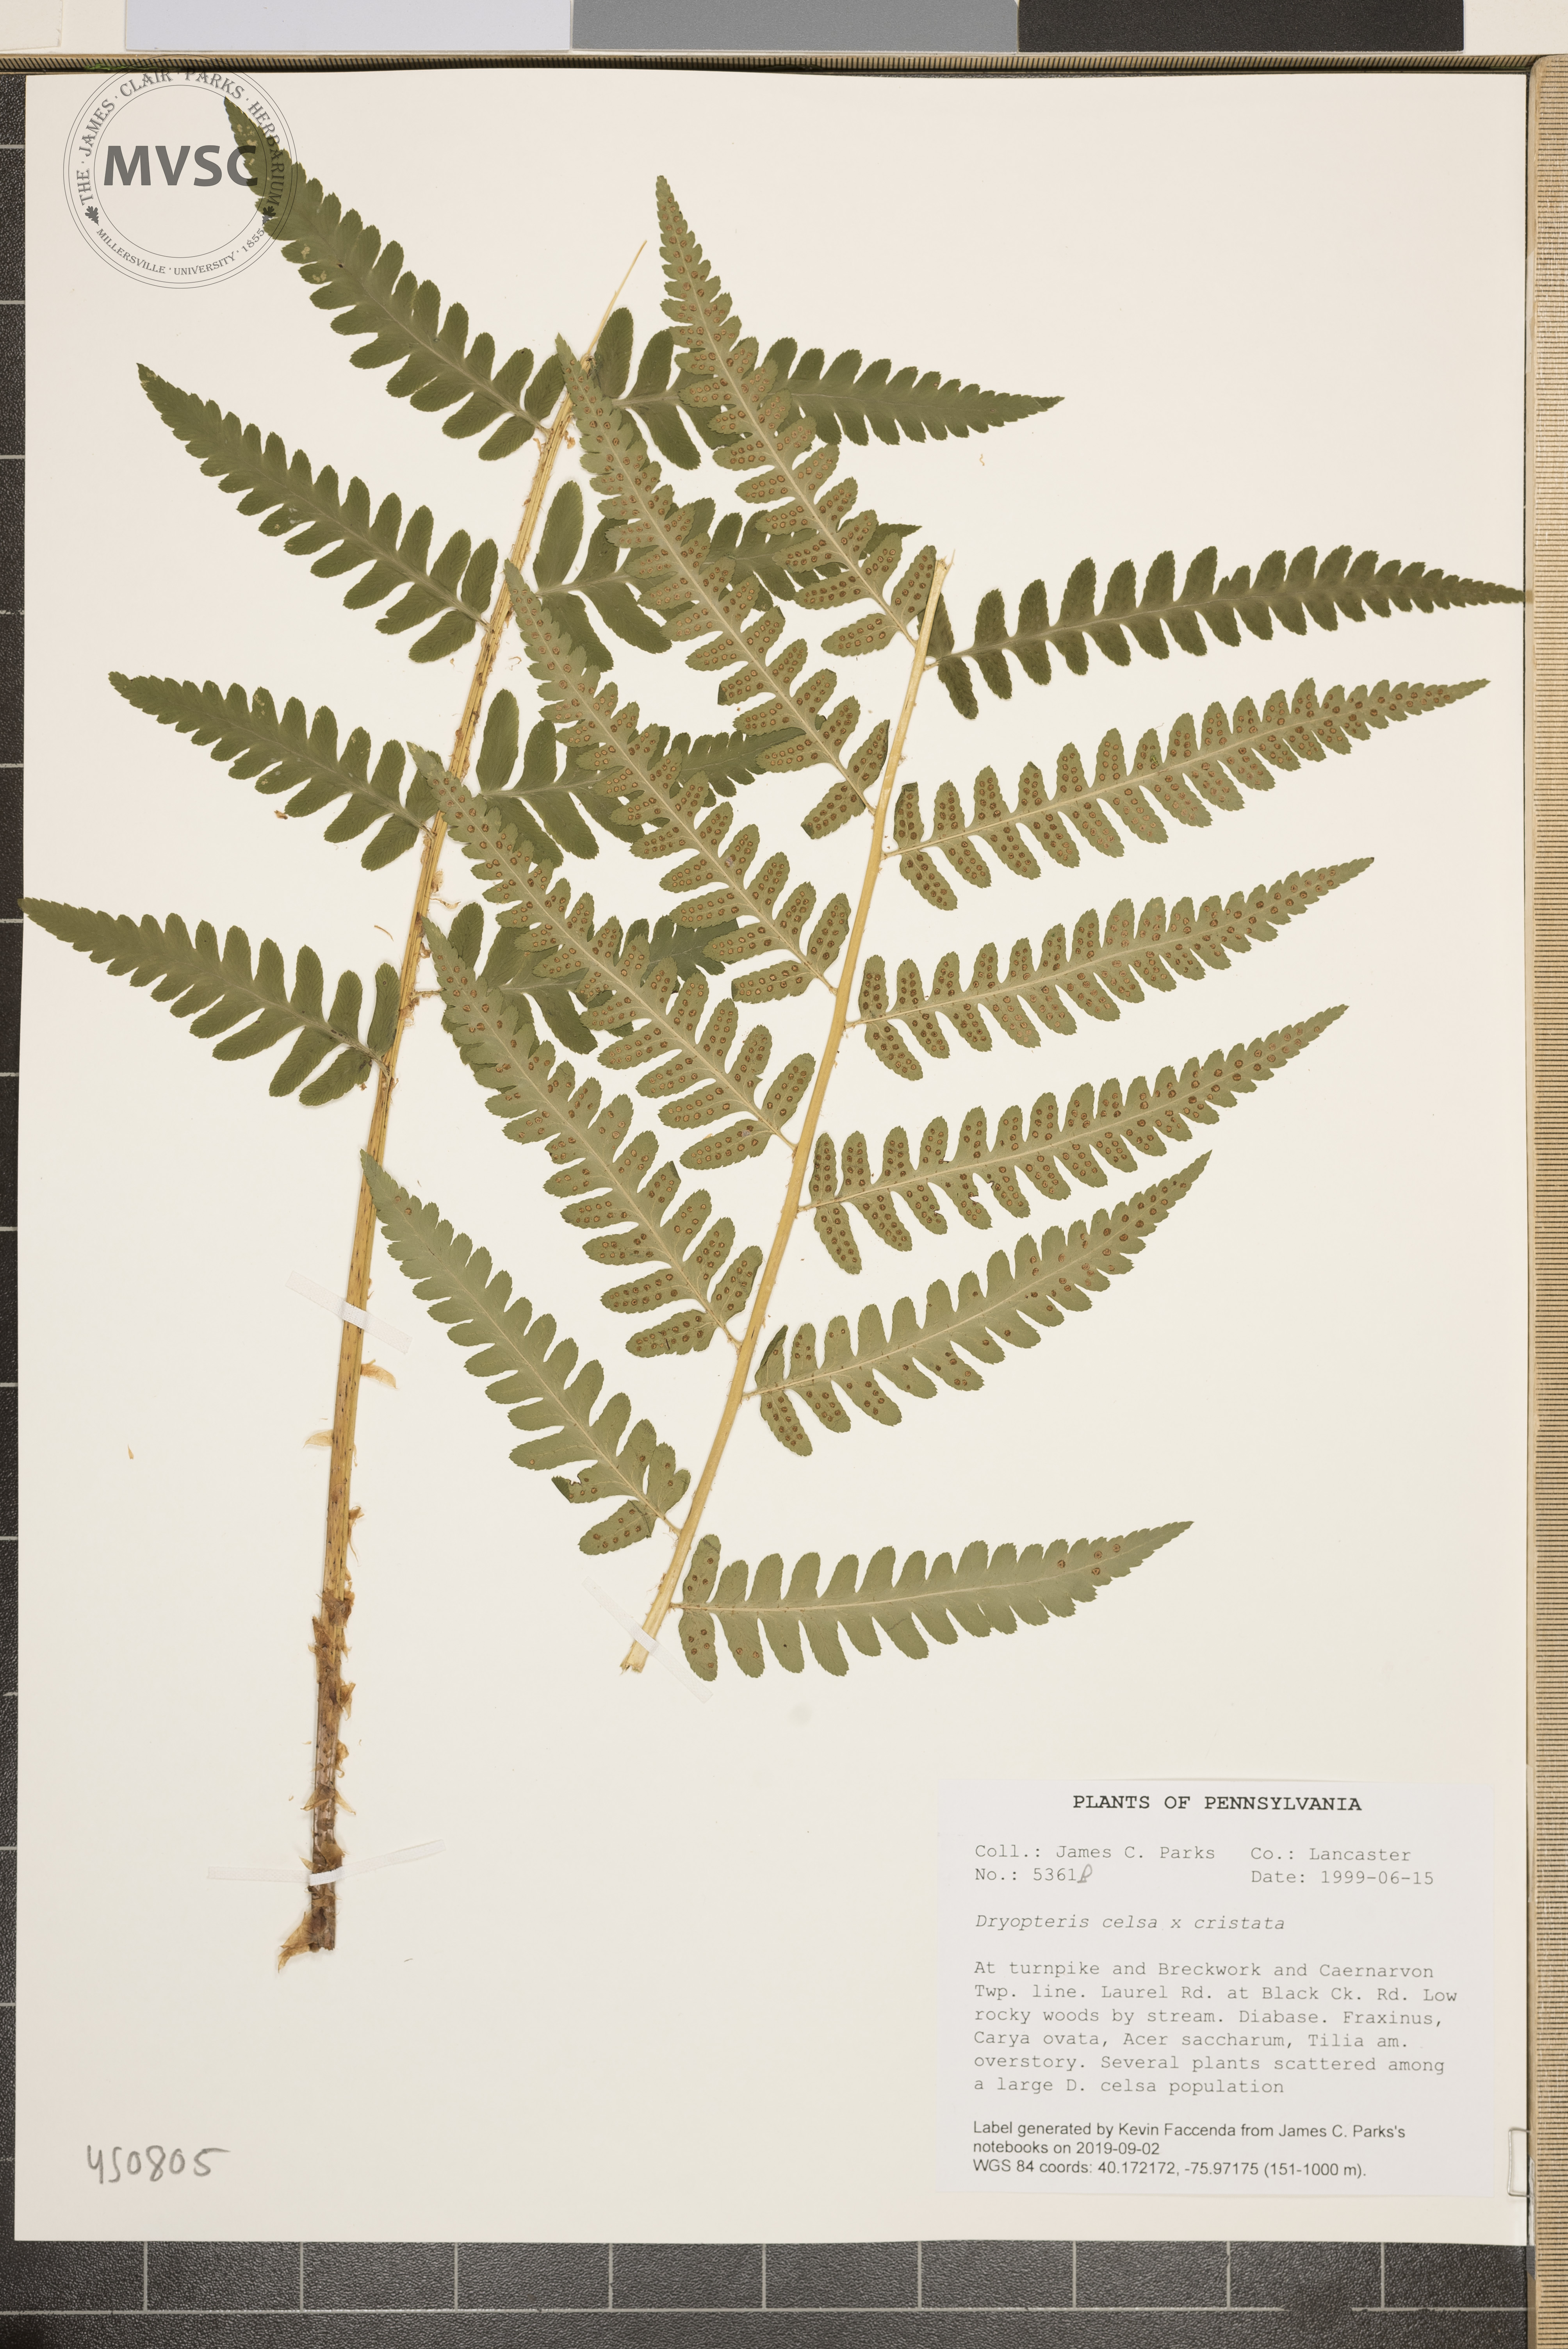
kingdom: Plantae
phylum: Tracheophyta
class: Polypodiopsida
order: Polypodiales
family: Dryopteridaceae
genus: Dryopteris
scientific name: Dryopteris
